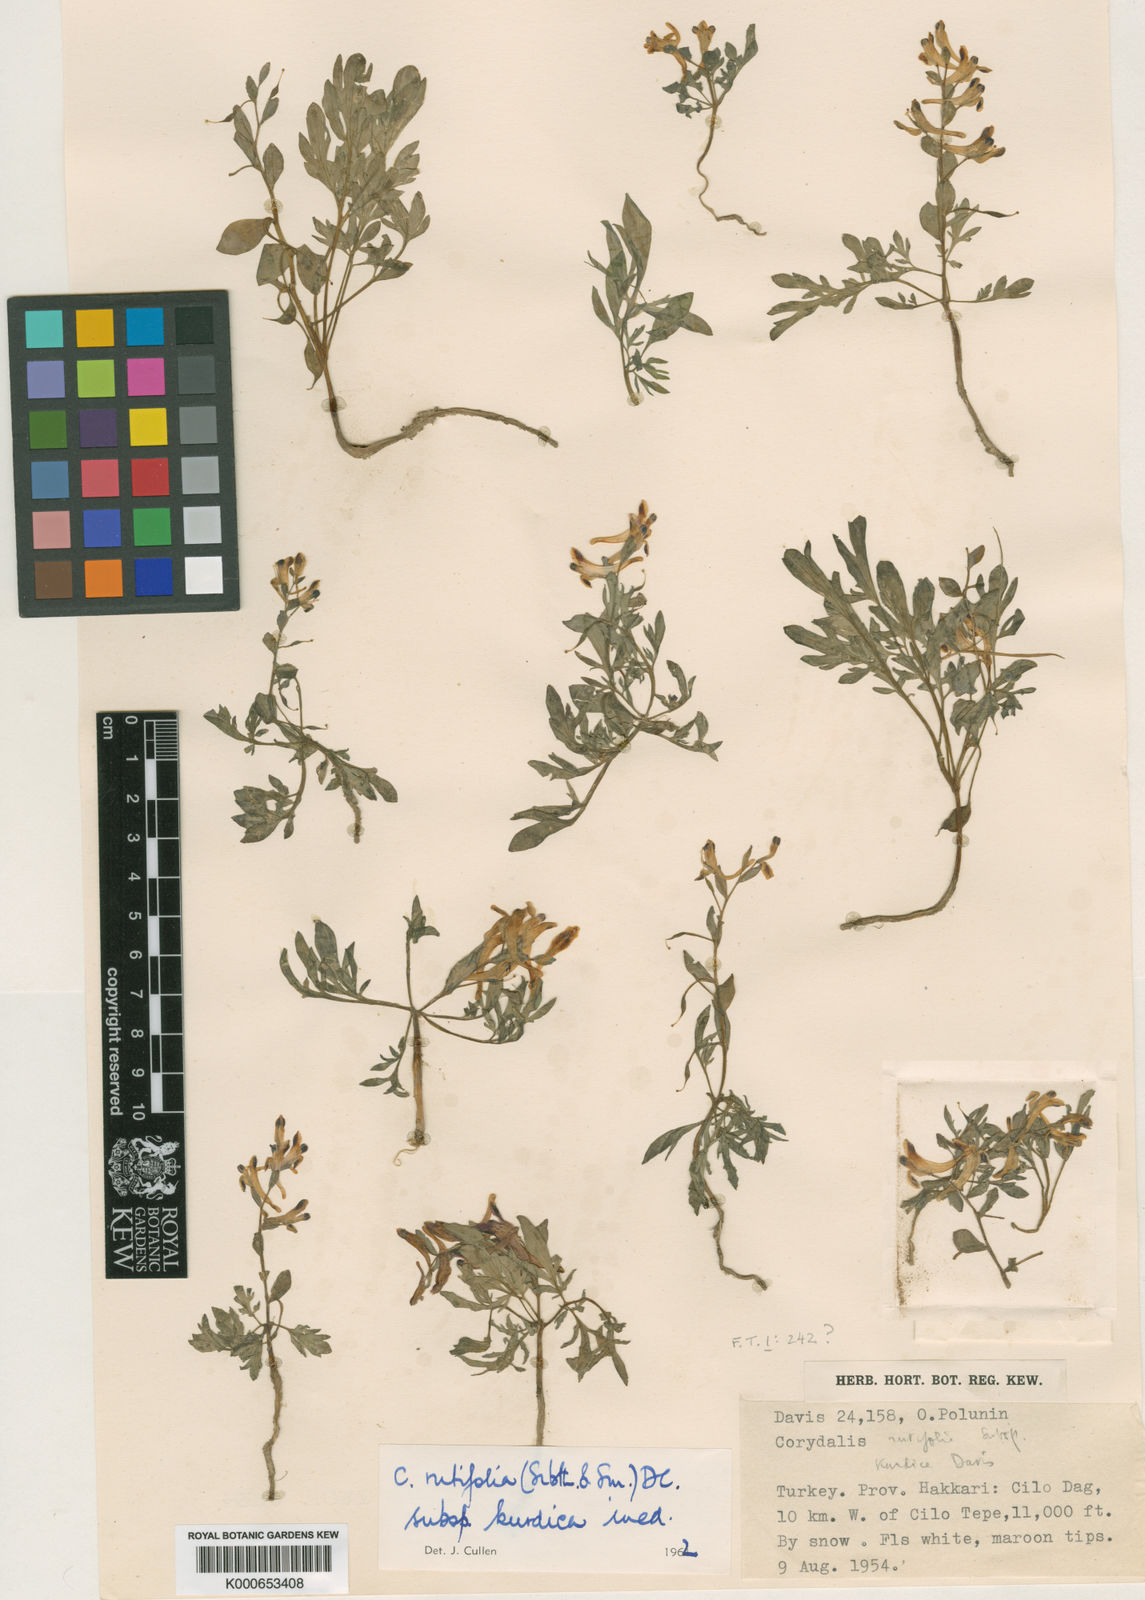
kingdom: Plantae
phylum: Tracheophyta
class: Magnoliopsida
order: Ranunculales
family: Papaveraceae
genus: Corydalis
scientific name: Corydalis rutifolia
